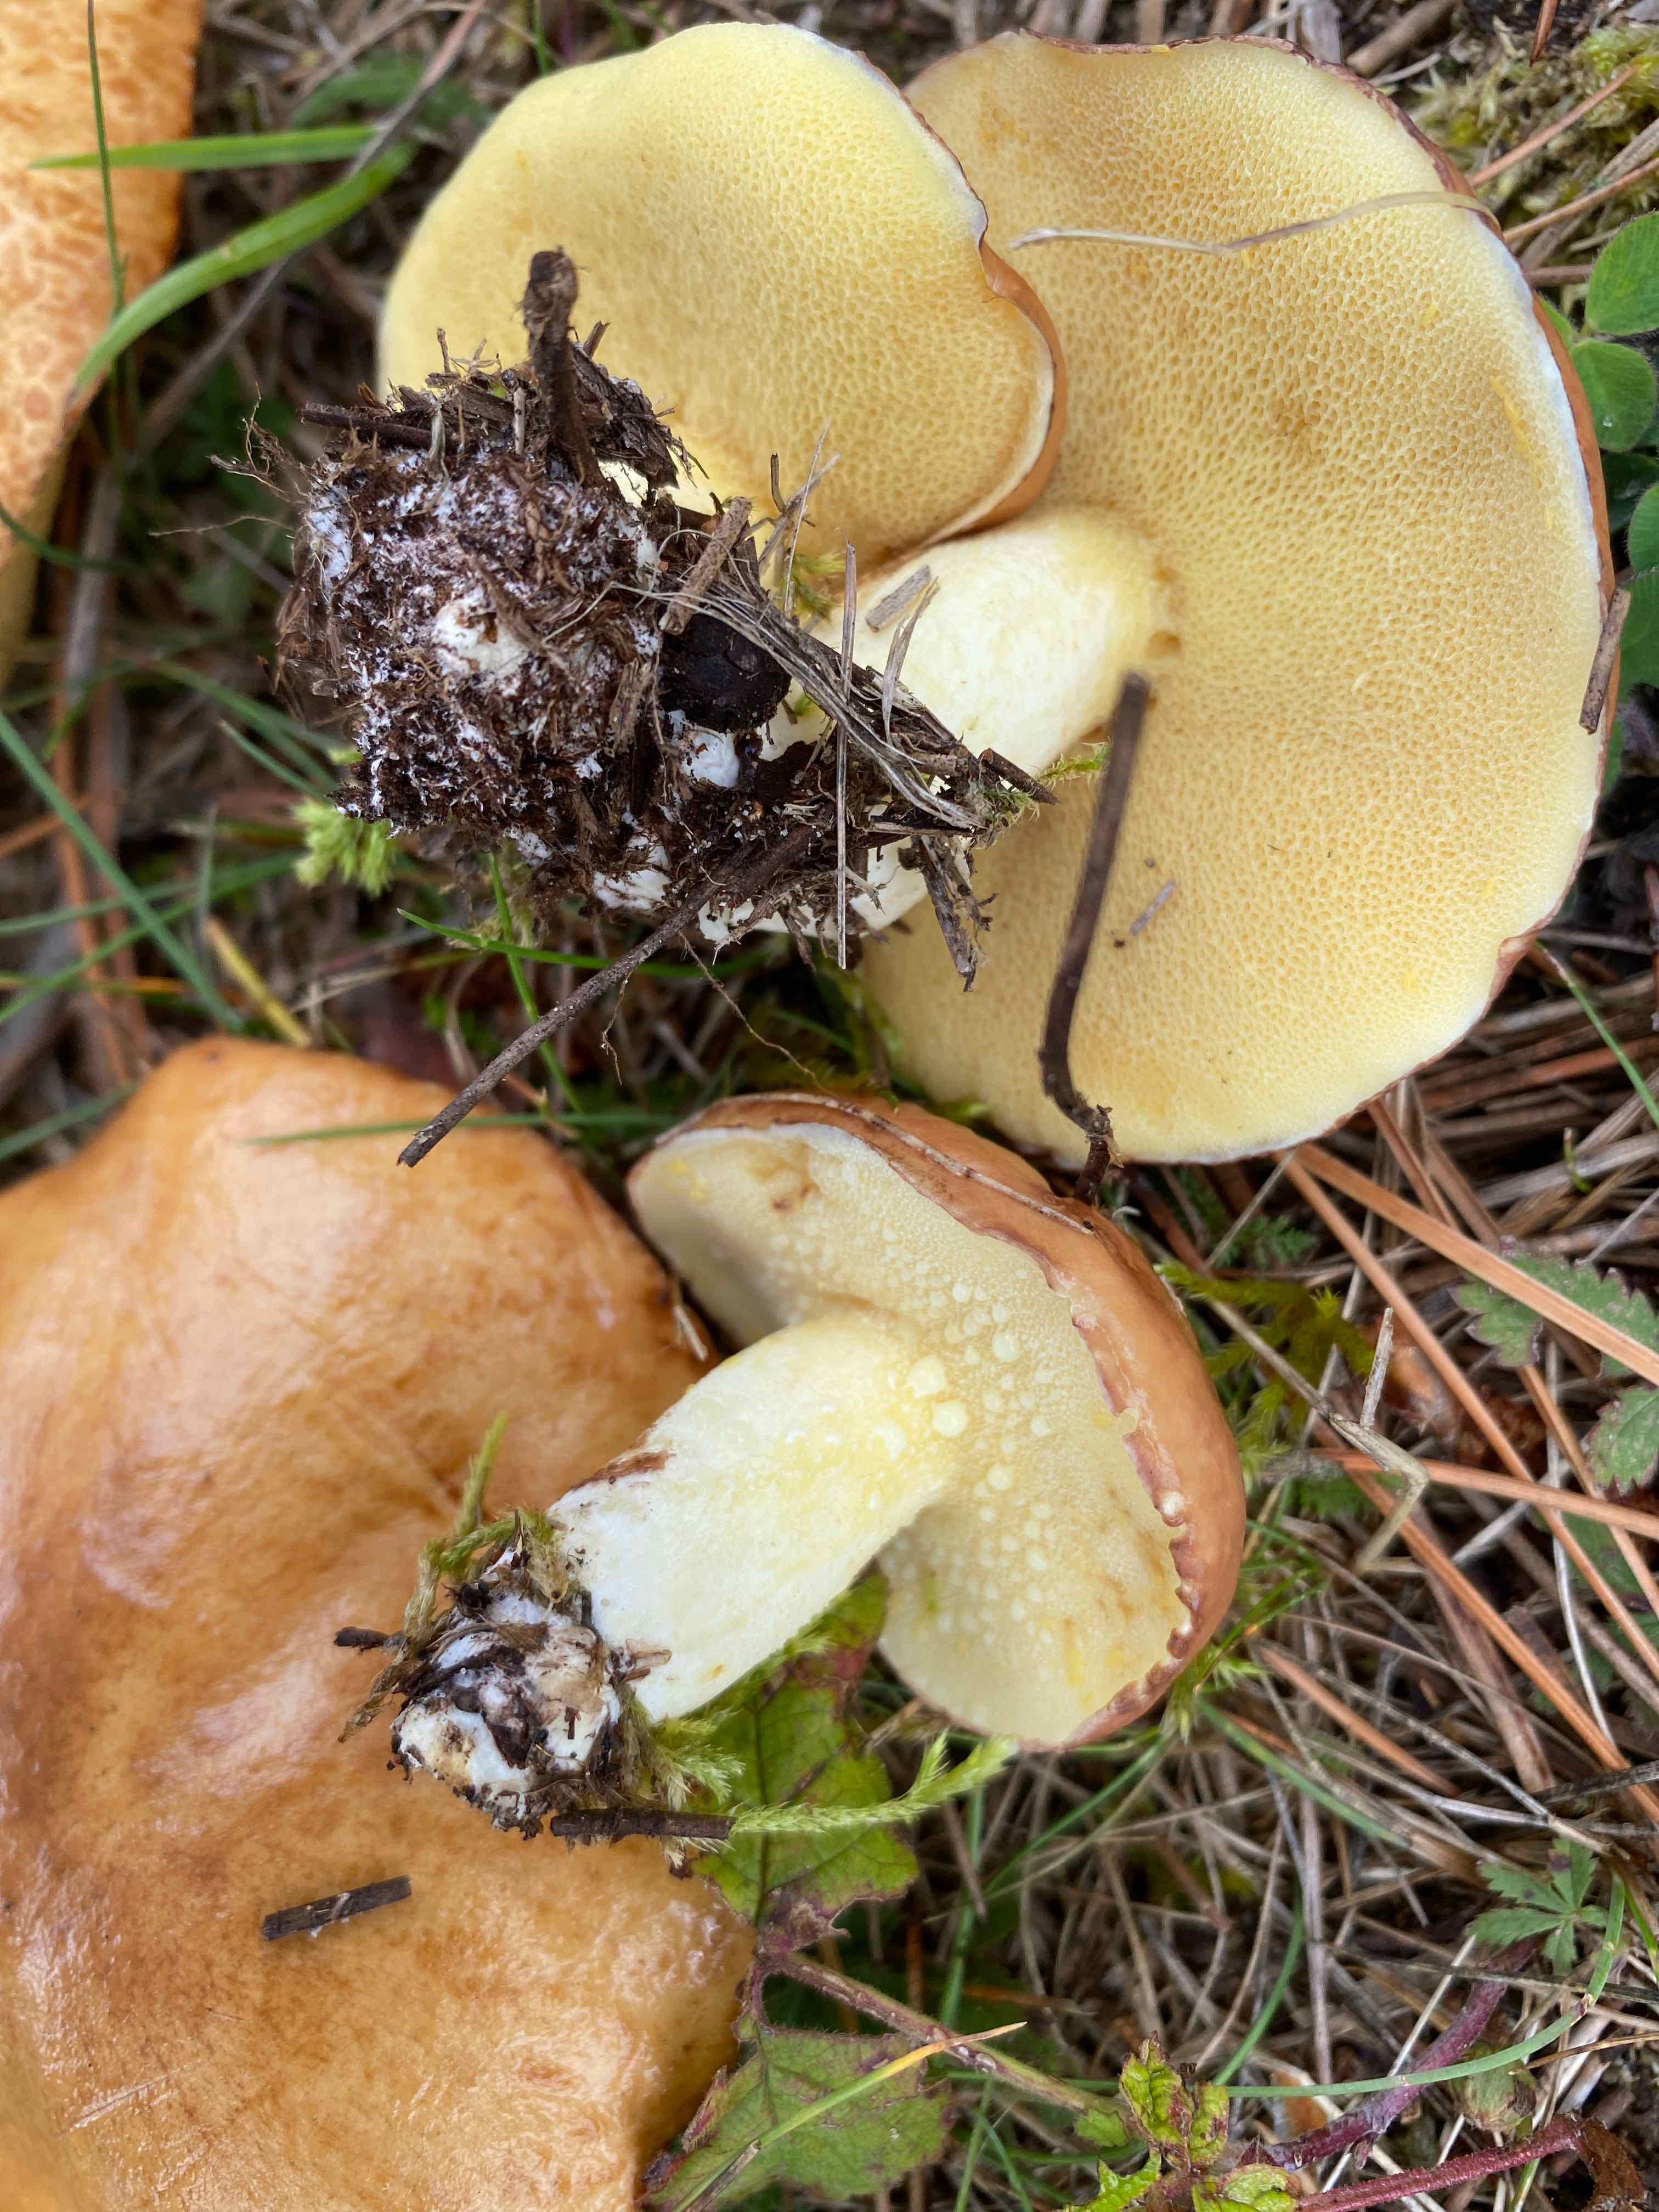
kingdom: Fungi
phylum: Basidiomycota
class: Agaricomycetes
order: Boletales
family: Suillaceae
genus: Suillus
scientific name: Suillus granulatus
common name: kornet slimrørhat
